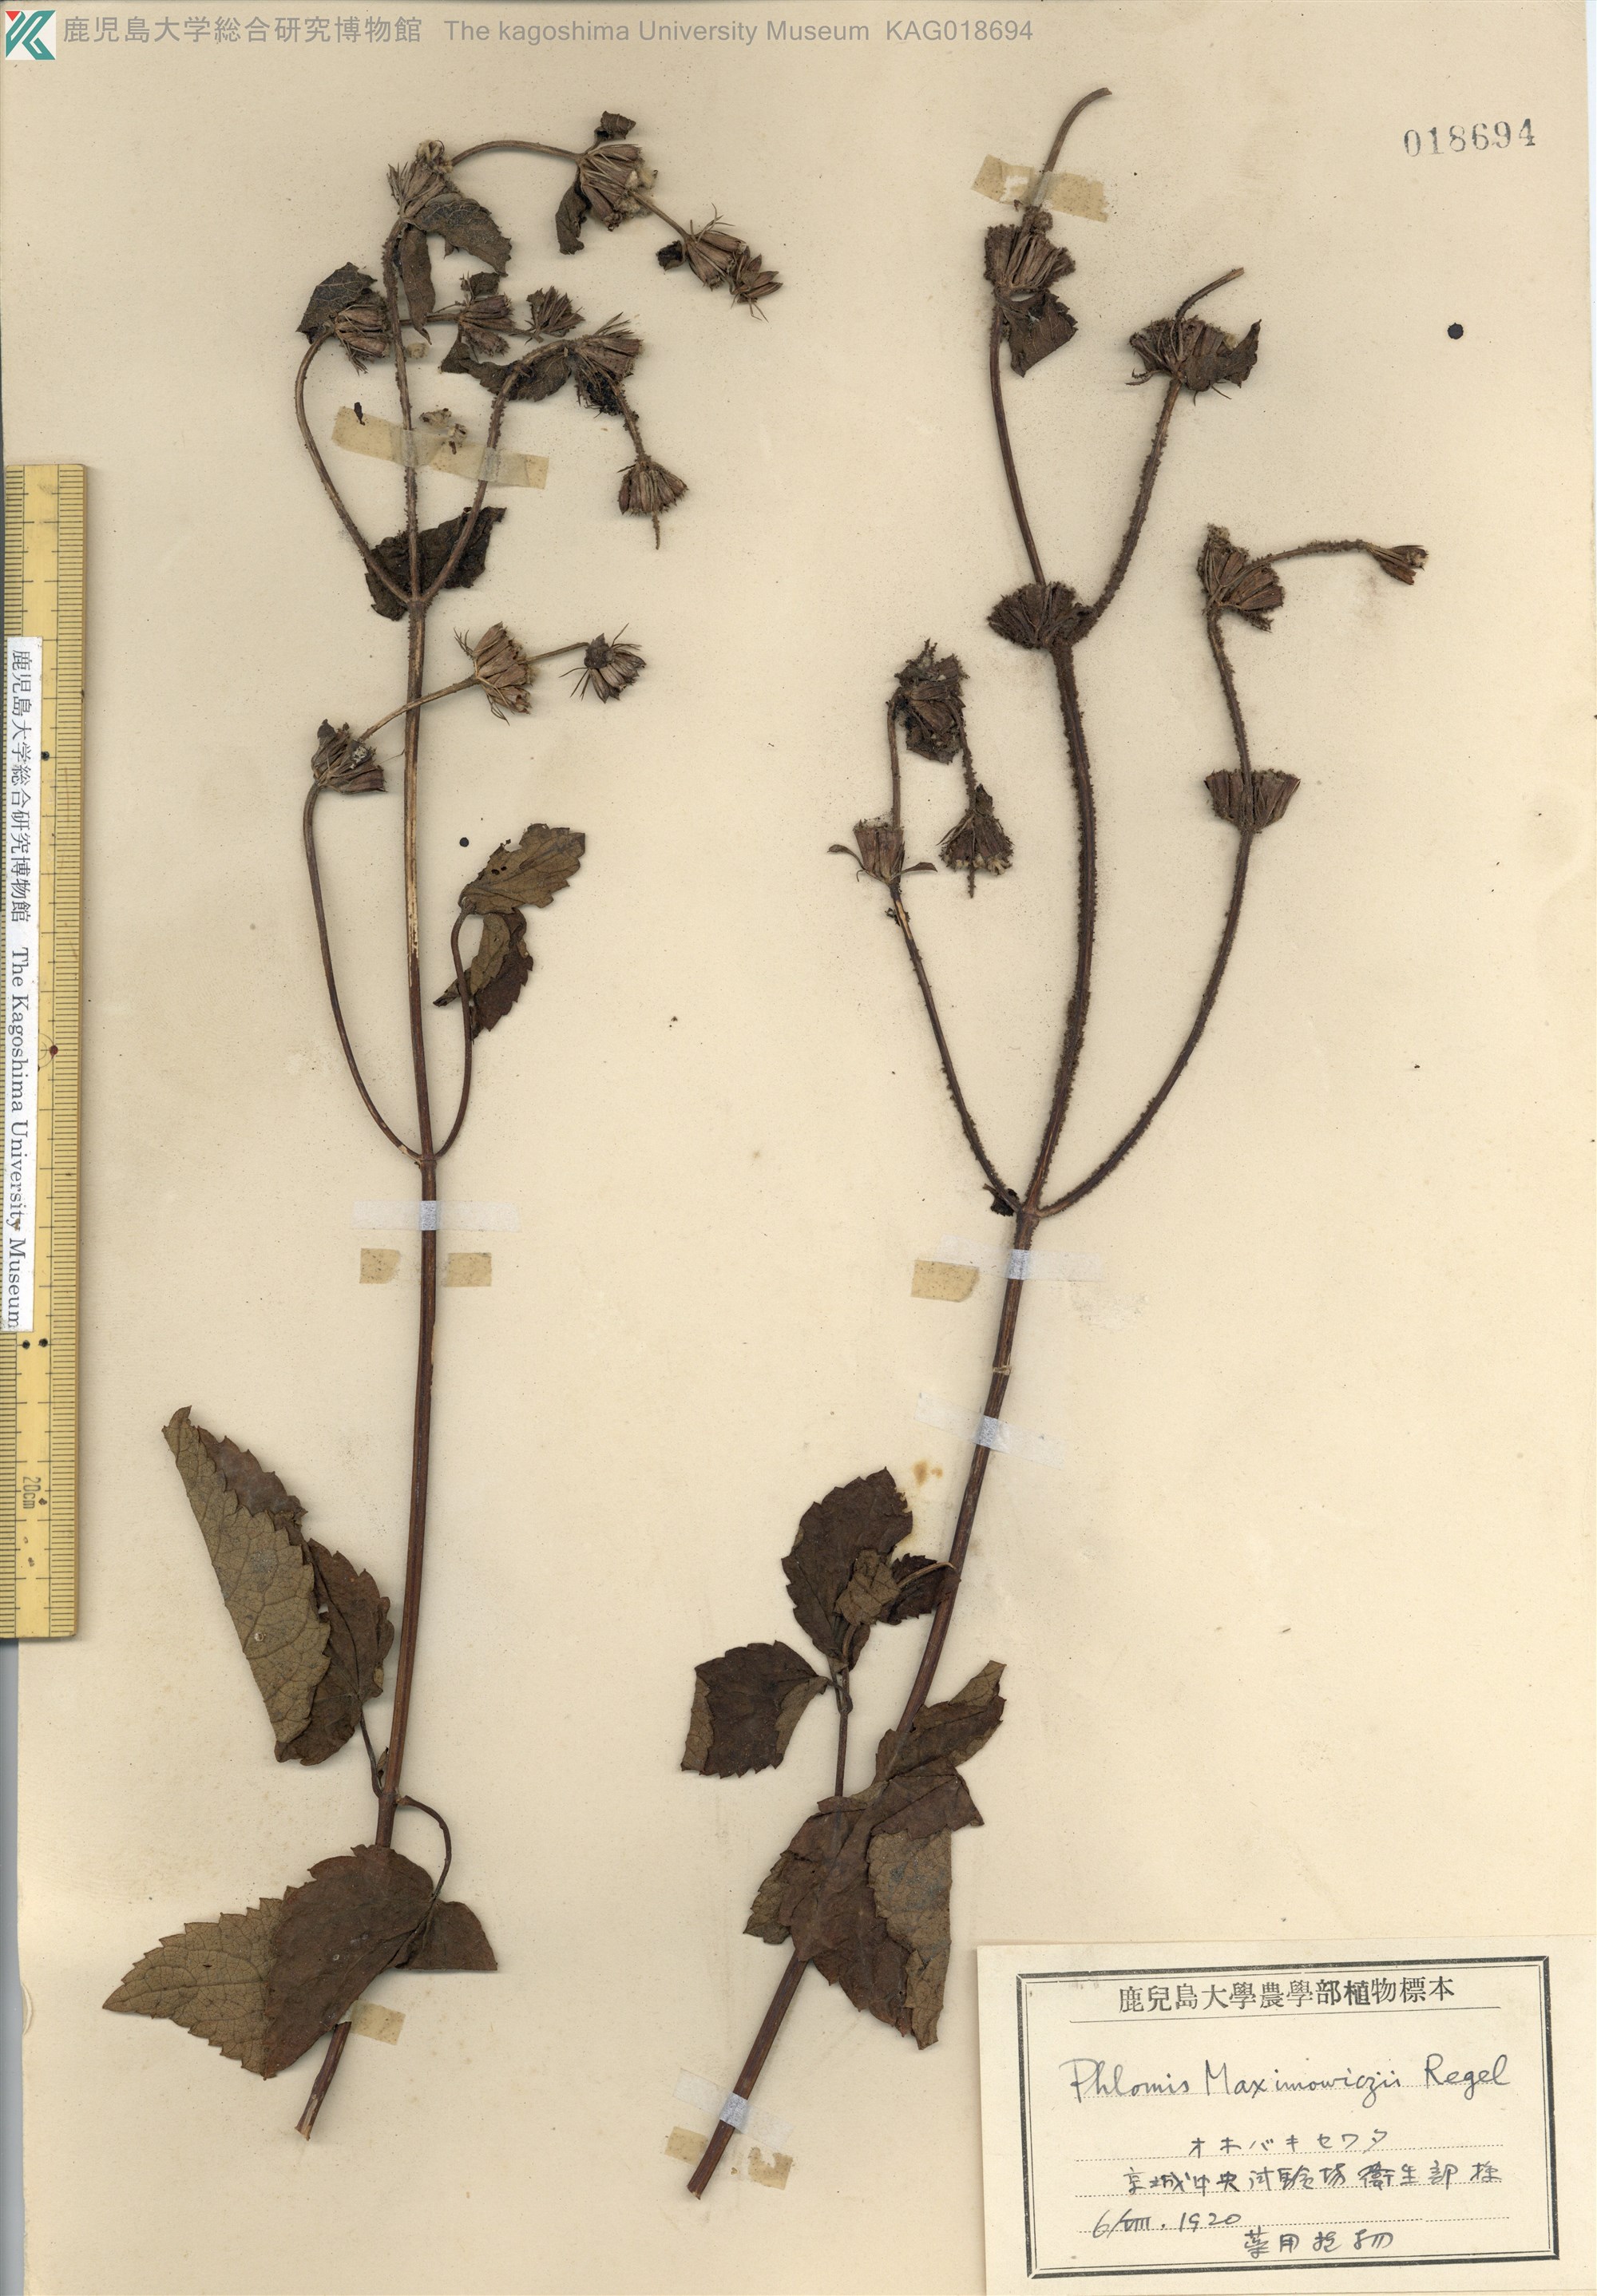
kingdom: Plantae
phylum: Tracheophyta
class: Magnoliopsida
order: Lamiales
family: Lamiaceae
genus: Phlomoides
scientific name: Phlomoides maximowiczii
